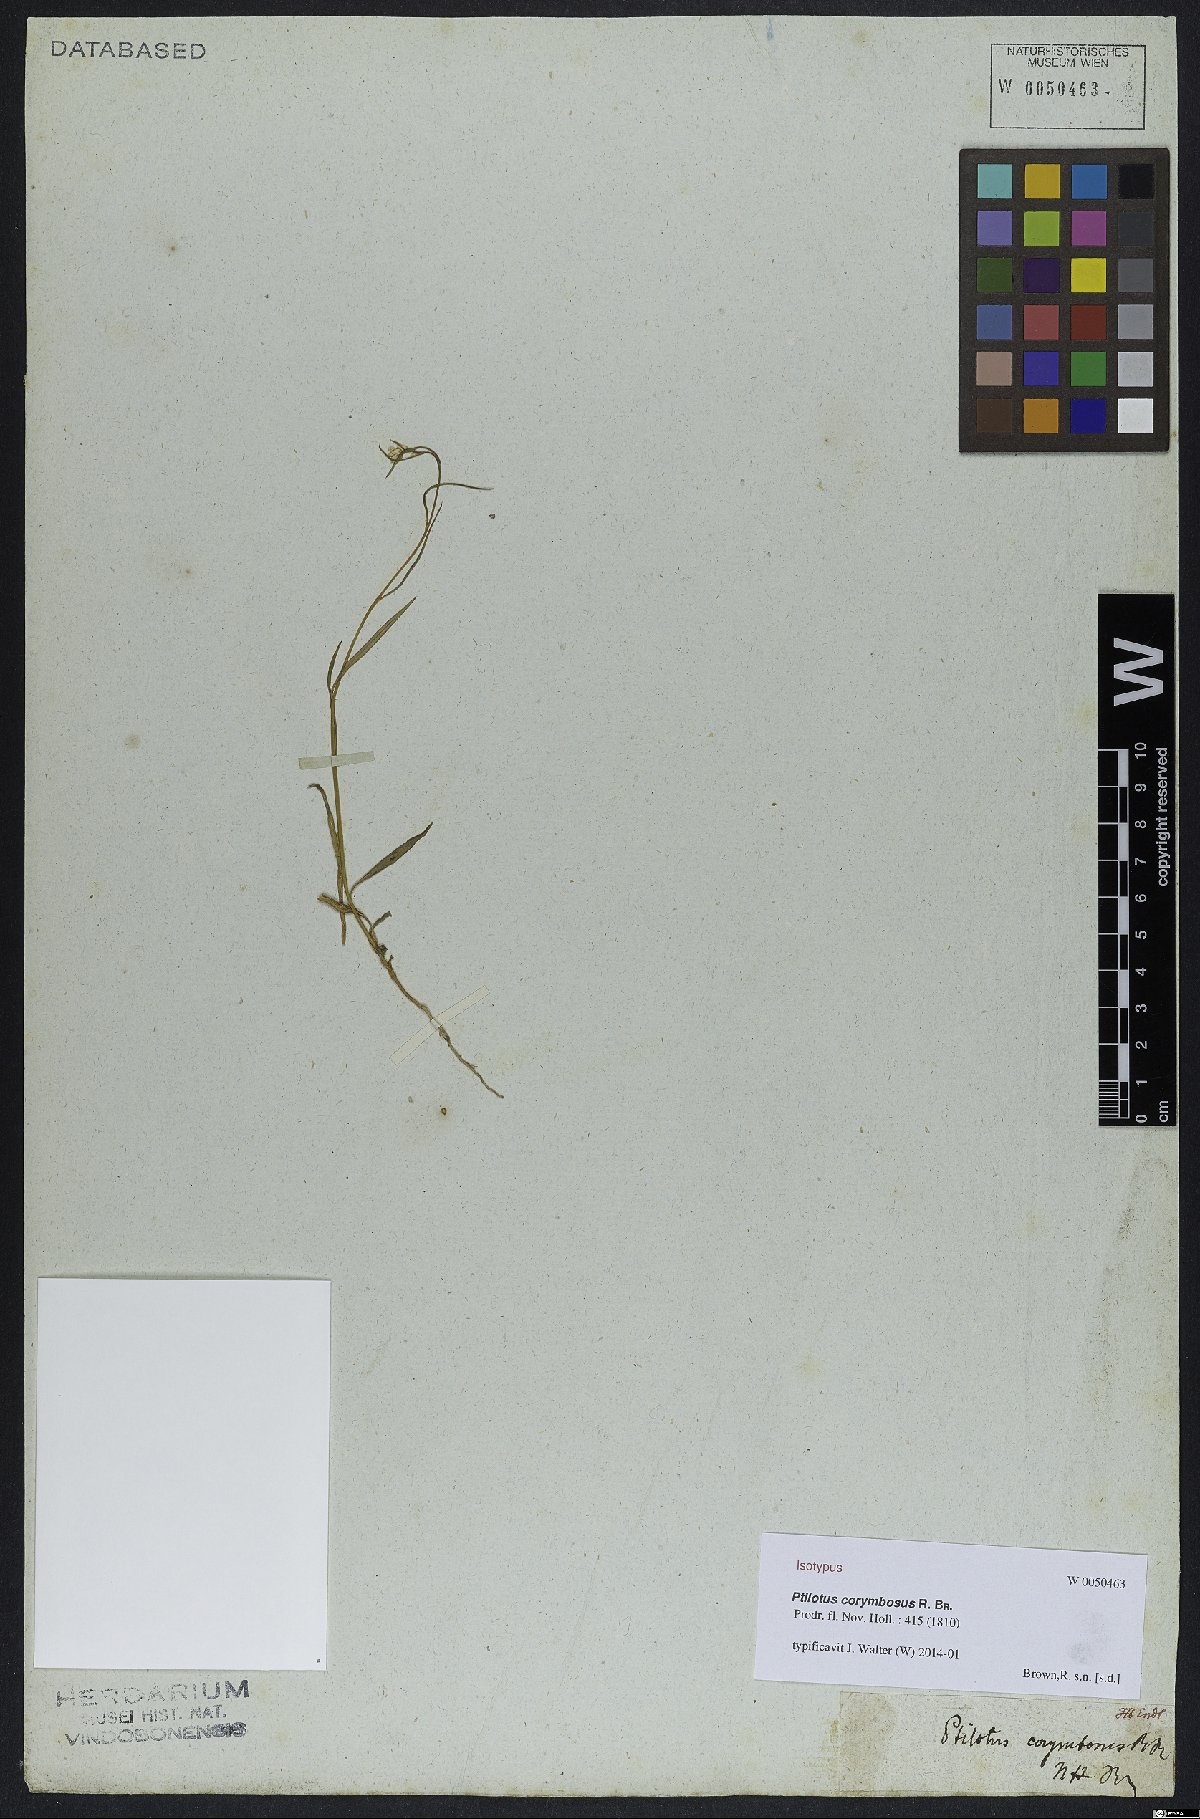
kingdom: Plantae
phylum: Tracheophyta
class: Magnoliopsida
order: Caryophyllales
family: Amaranthaceae
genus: Ptilotus
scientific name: Ptilotus corymbosus
